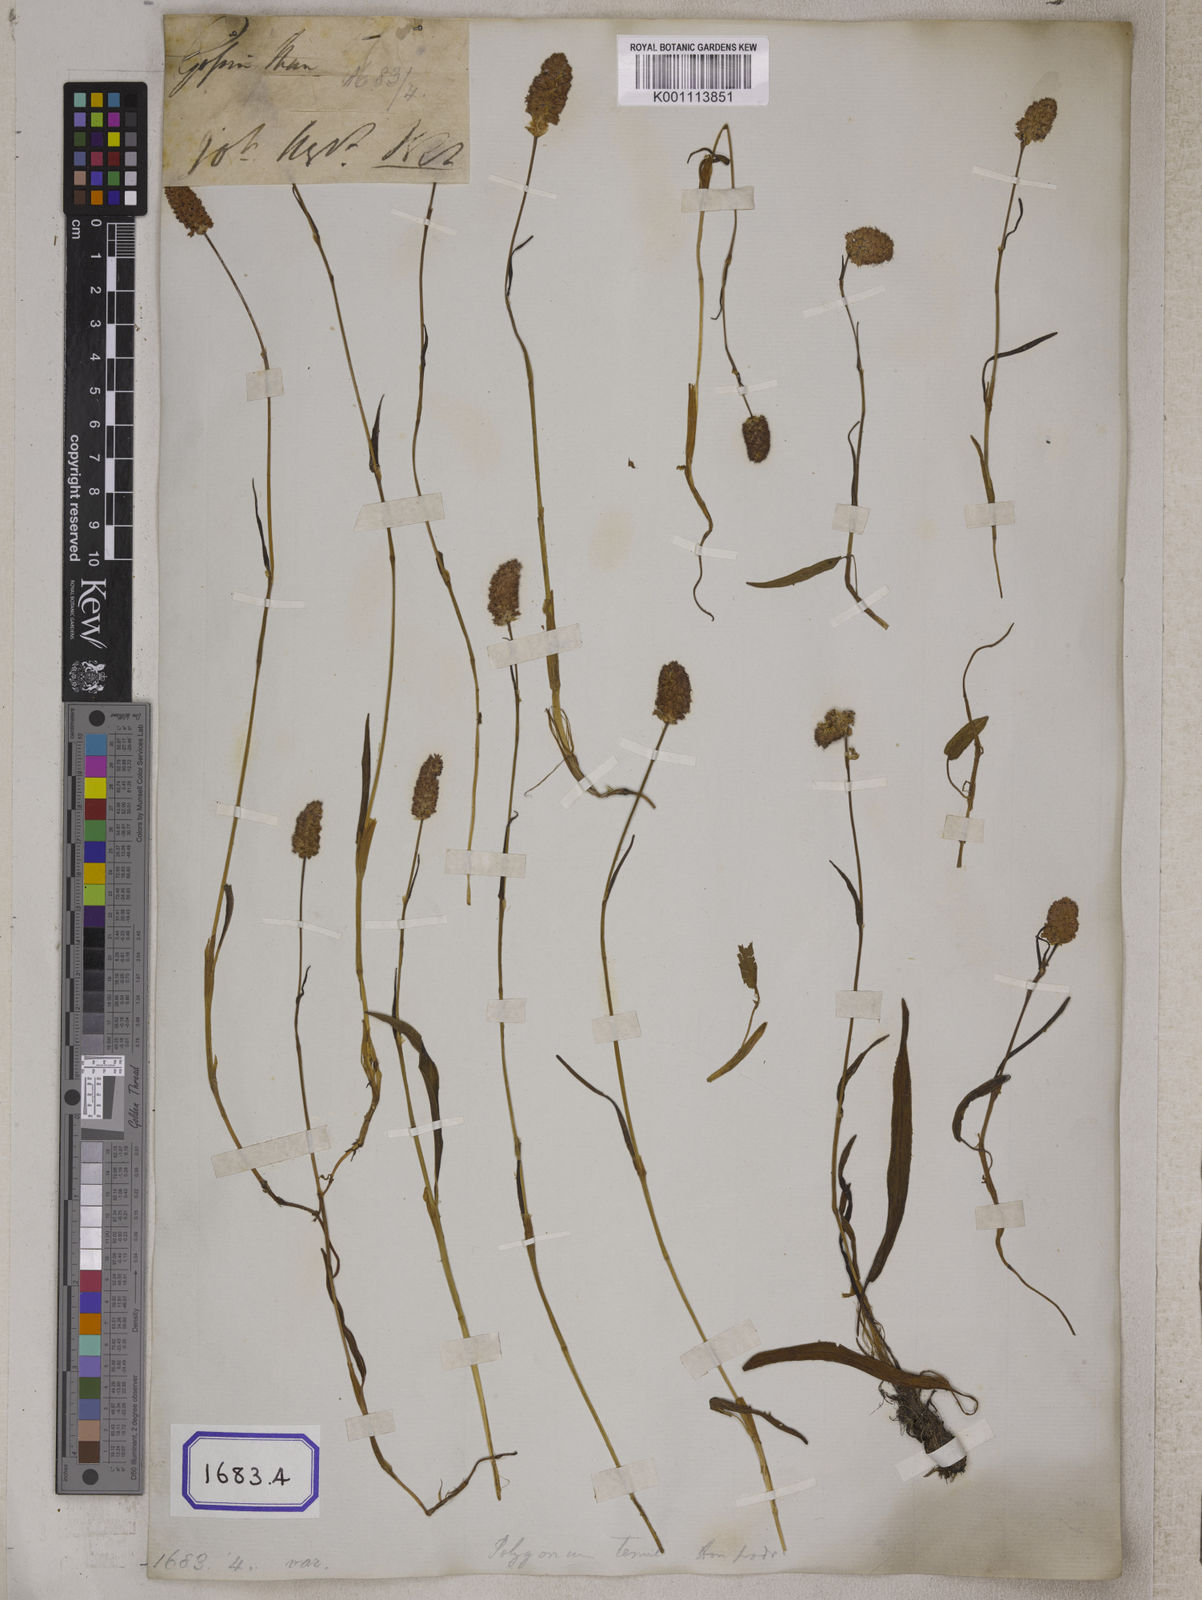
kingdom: Plantae
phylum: Tracheophyta
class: Magnoliopsida
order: Caryophyllales
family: Polygonaceae
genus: Bistorta
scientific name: Bistorta affinis
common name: Himalayan fleeceflower
